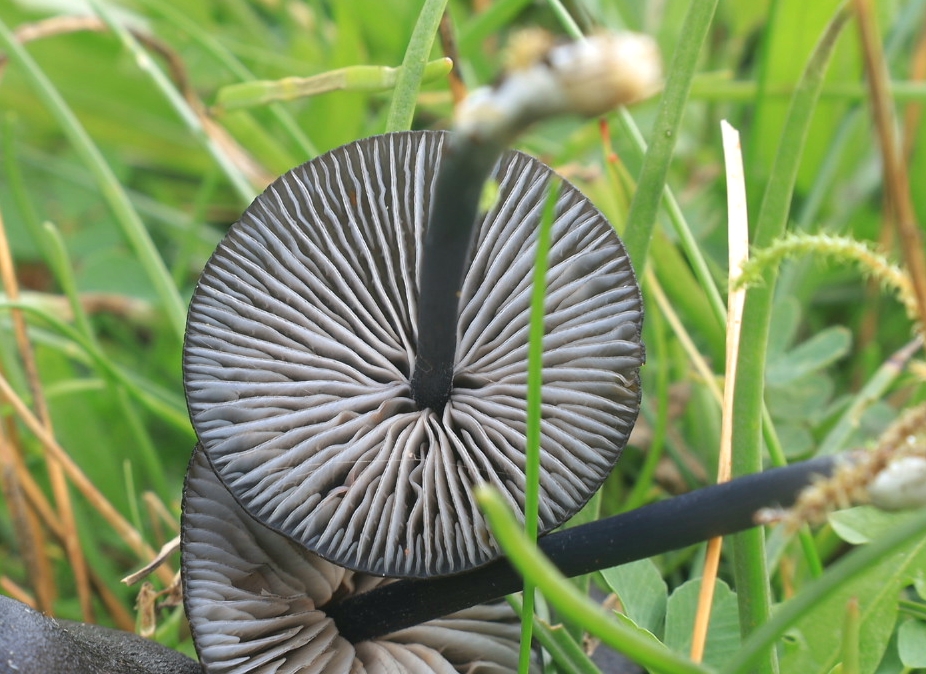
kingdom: Fungi
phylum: Basidiomycota
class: Agaricomycetes
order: Agaricales
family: Entolomataceae
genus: Entoloma
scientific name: Entoloma chalybeum
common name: blåbladet rødblad
